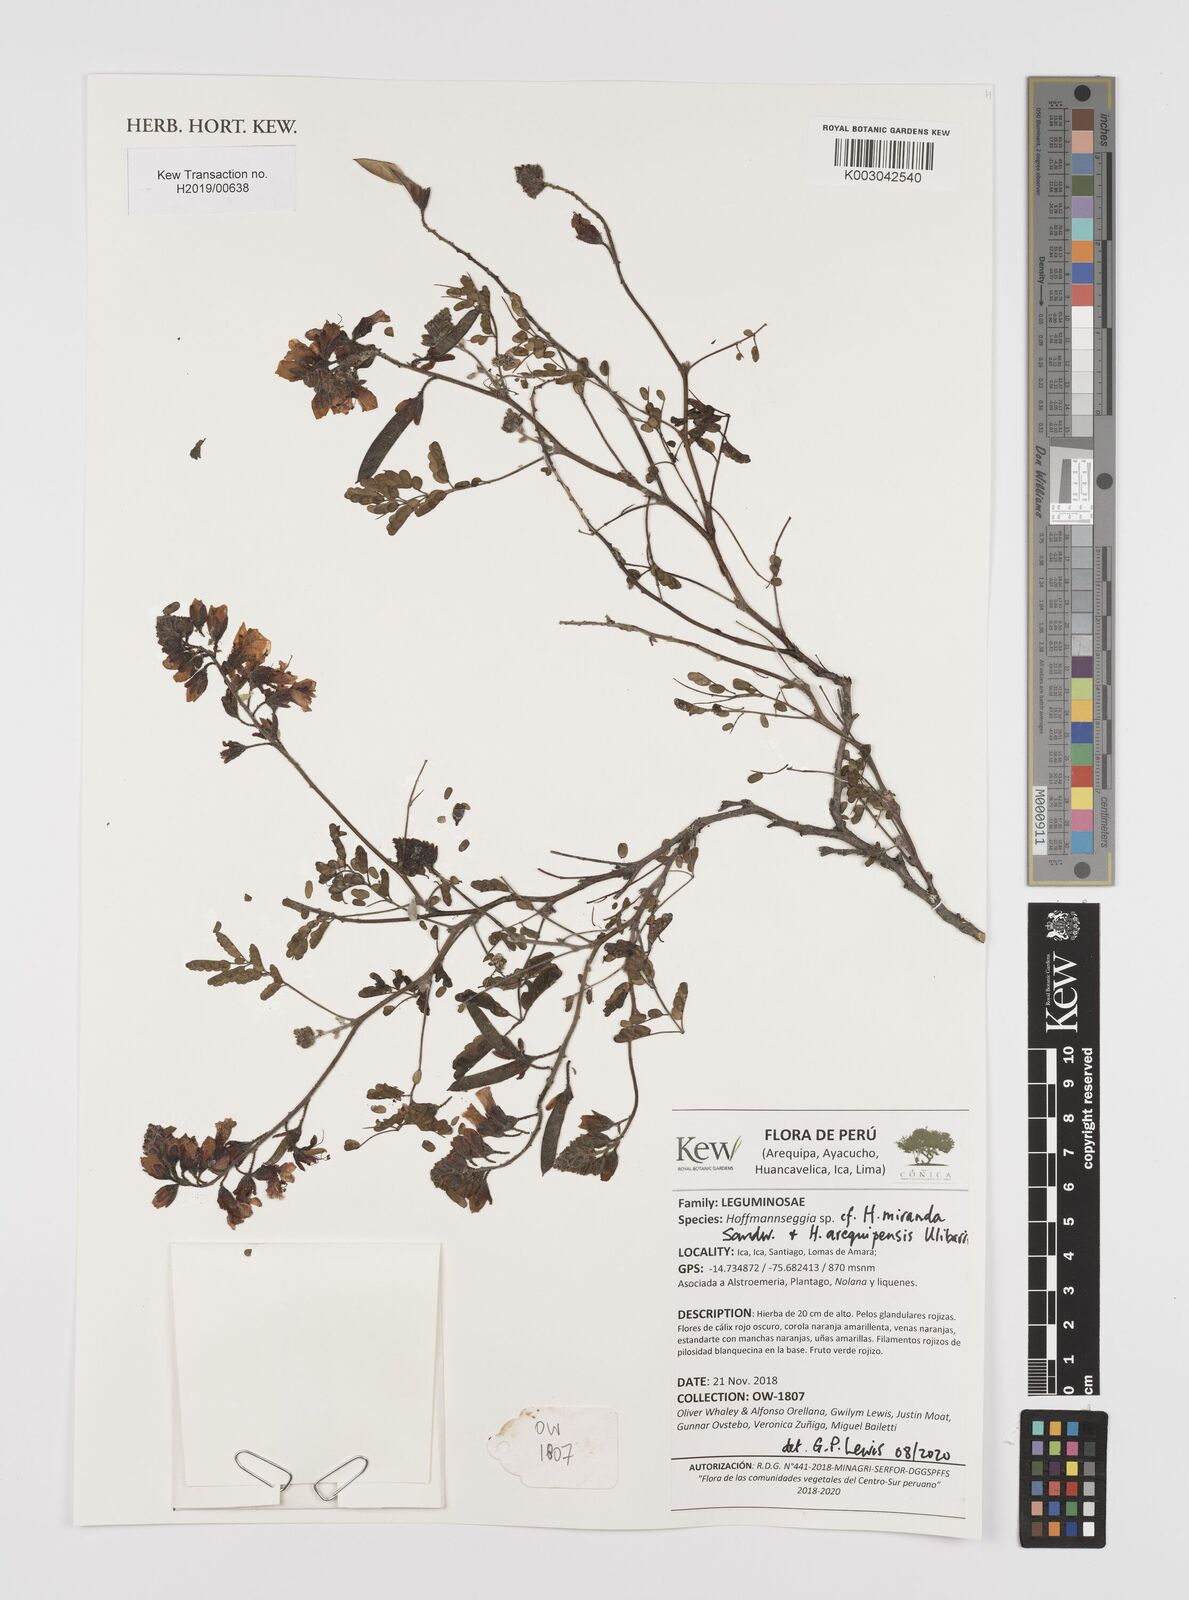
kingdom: Plantae
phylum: Tracheophyta
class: Magnoliopsida
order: Fabales
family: Fabaceae
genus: Hoffmannseggia
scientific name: Hoffmannseggia miranda
